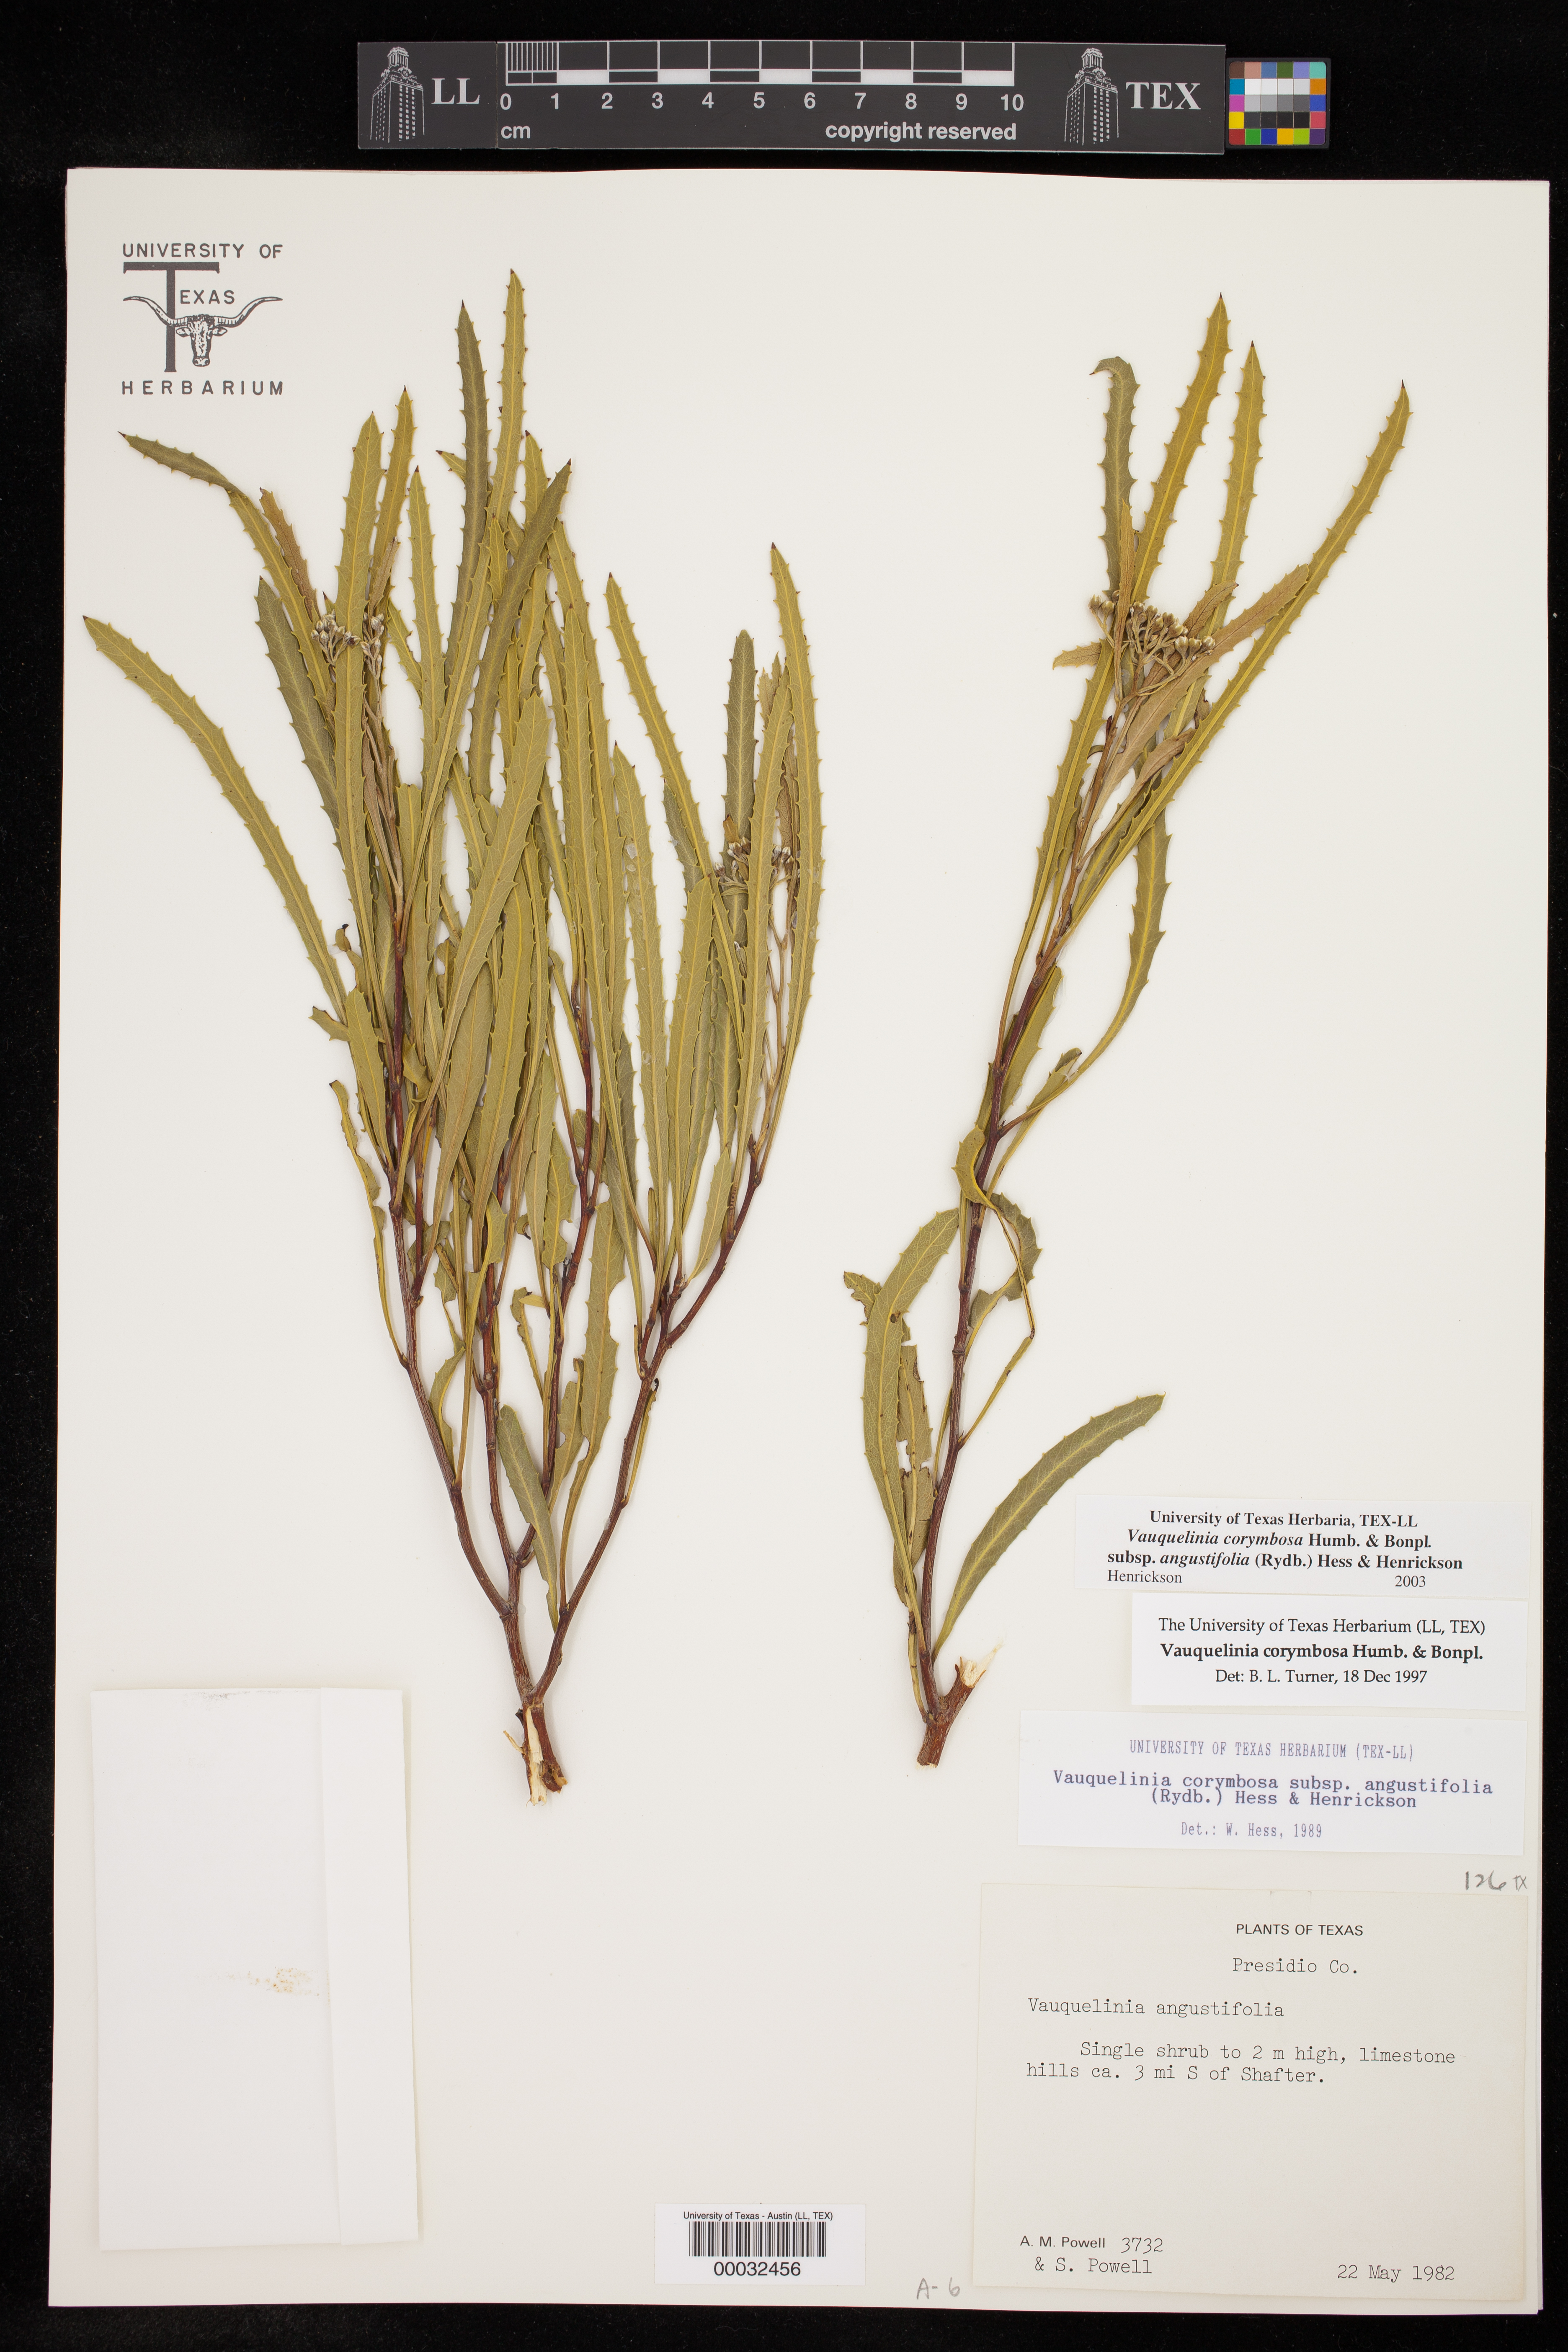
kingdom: Plantae
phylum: Tracheophyta
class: Magnoliopsida
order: Rosales
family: Rosaceae
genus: Vauquelinia
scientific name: Vauquelinia corymbosa
